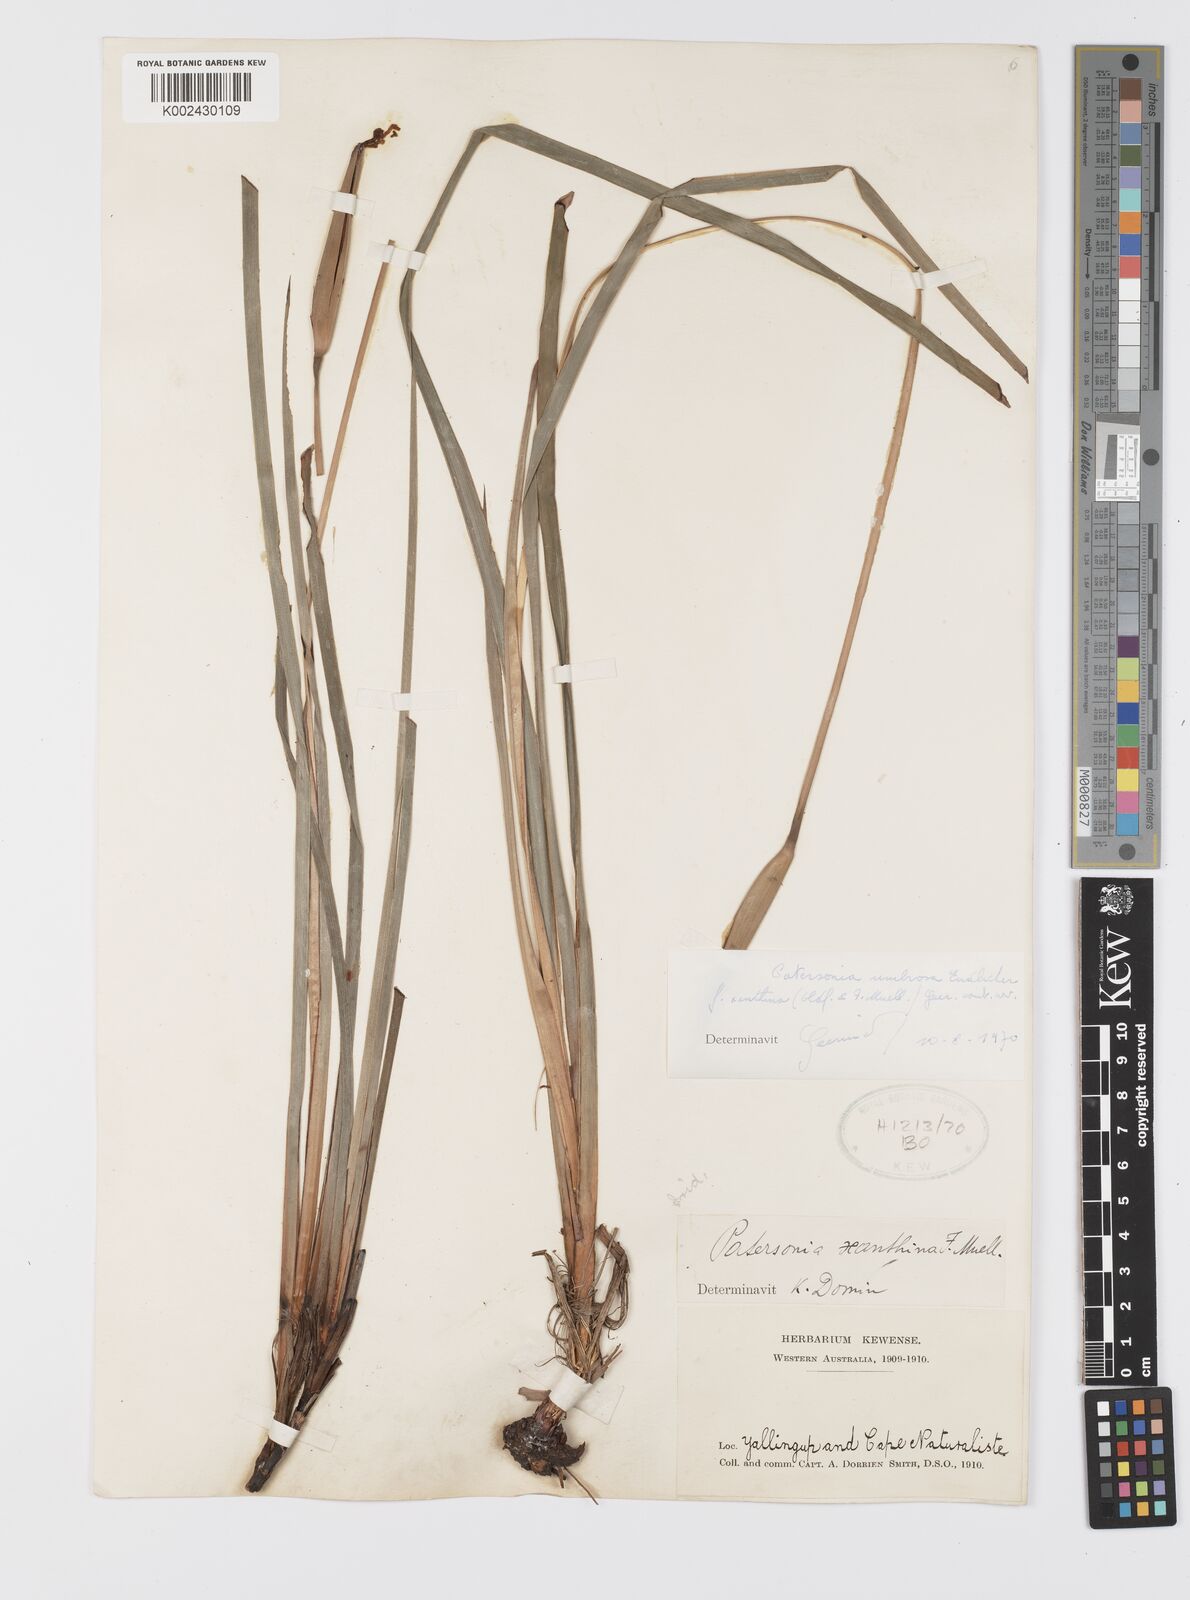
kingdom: Plantae
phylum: Tracheophyta
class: Liliopsida
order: Asparagales
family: Iridaceae
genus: Patersonia
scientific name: Patersonia umbrosa
